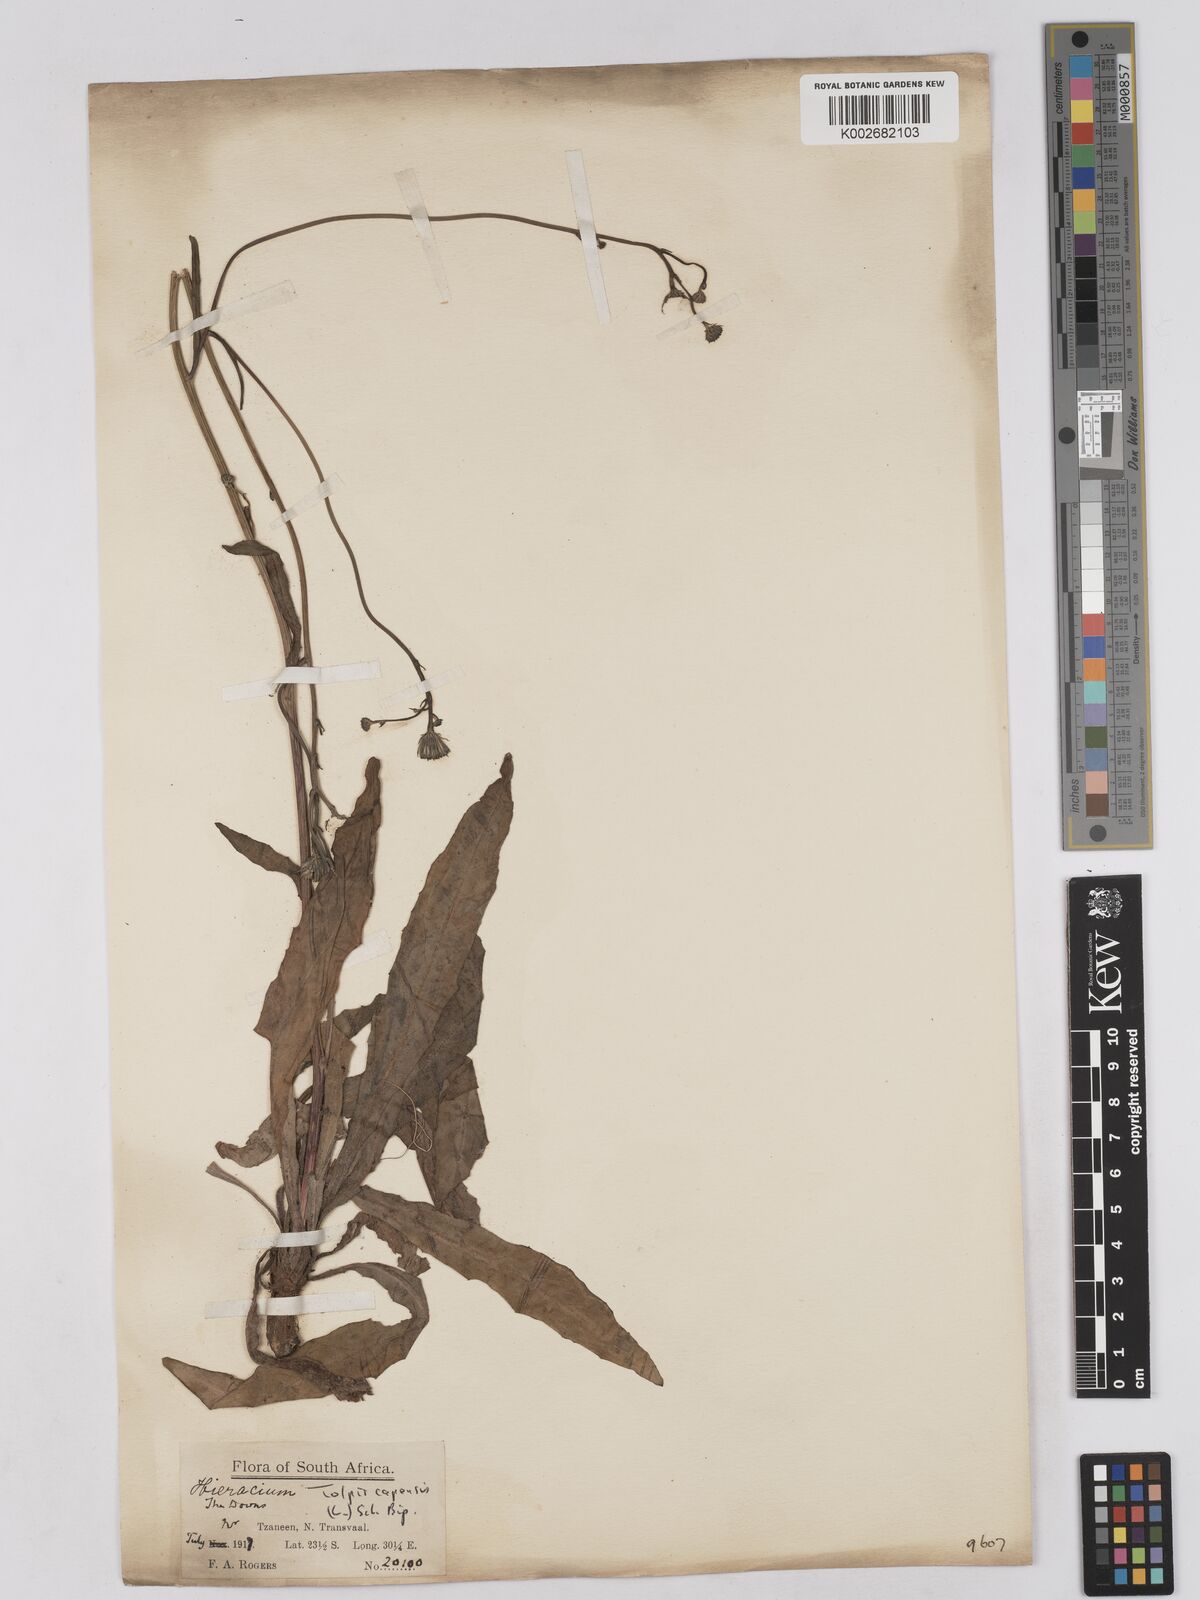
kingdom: Plantae
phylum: Tracheophyta
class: Magnoliopsida
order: Asterales
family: Asteraceae
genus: Tolpis
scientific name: Tolpis capensis
